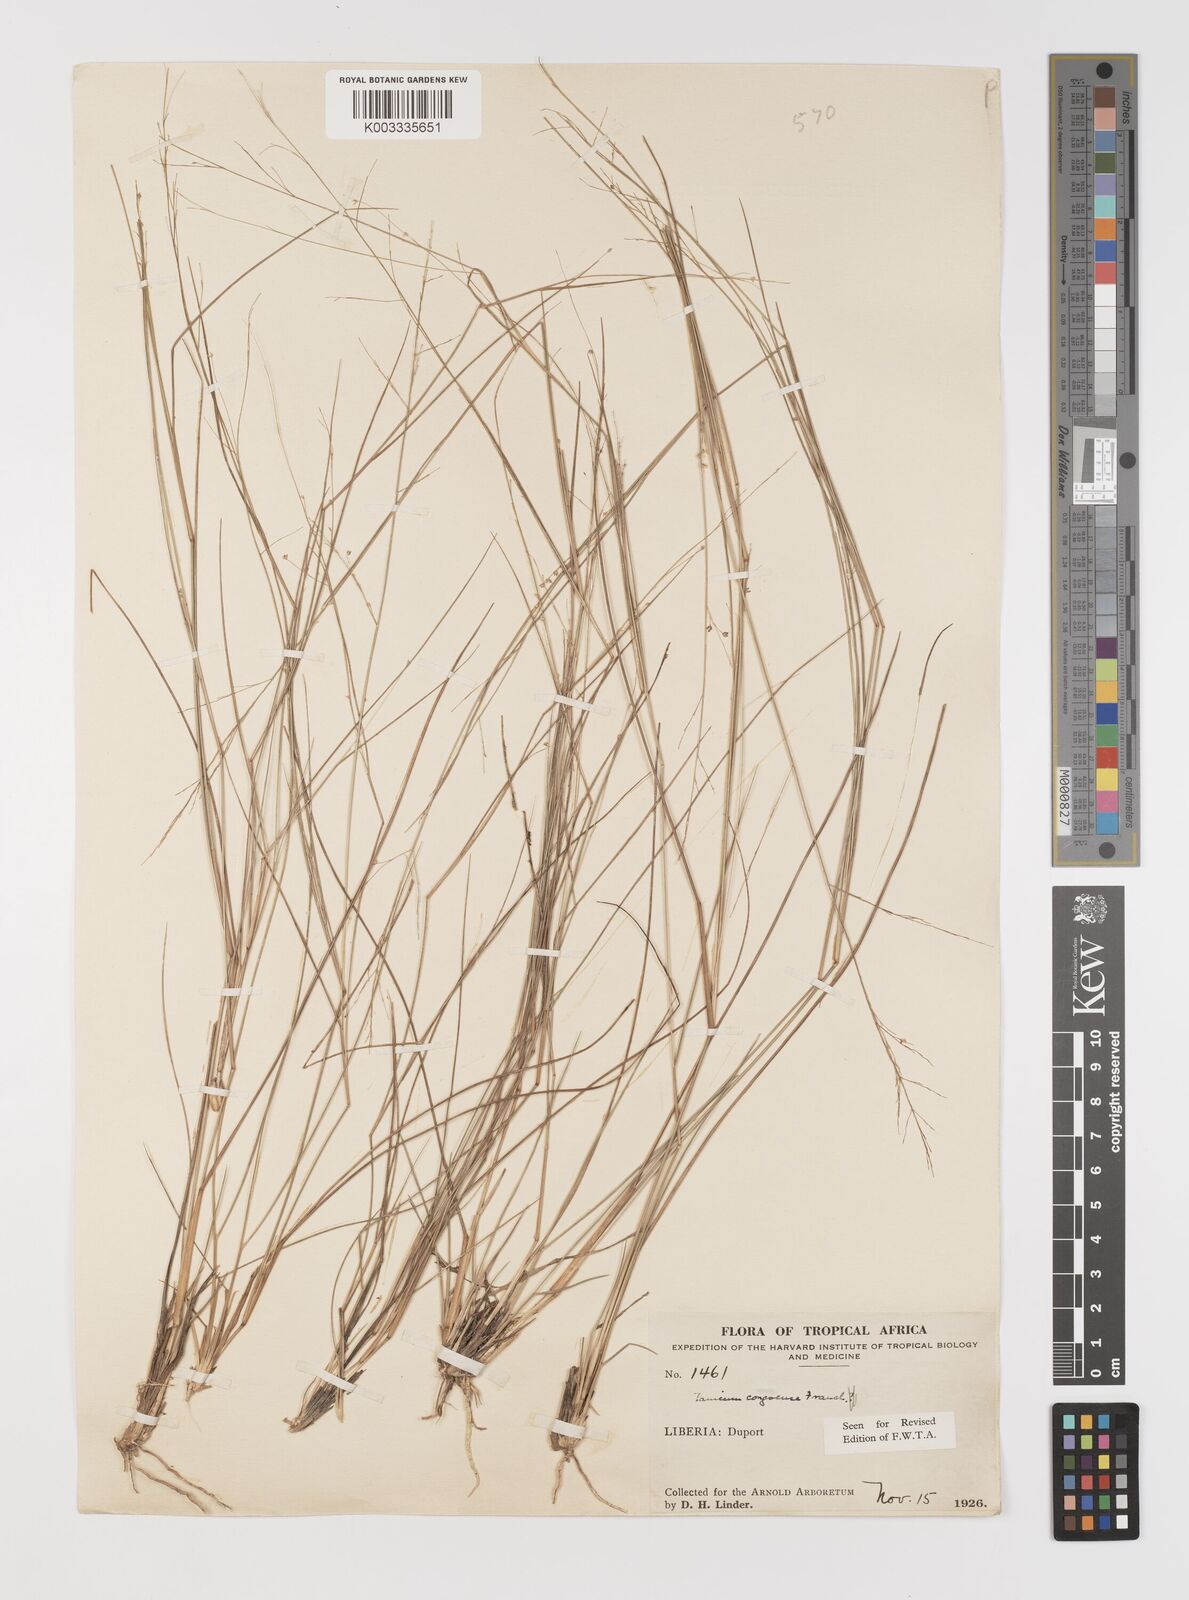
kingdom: Plantae
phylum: Tracheophyta
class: Liliopsida
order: Poales
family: Poaceae
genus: Panicum
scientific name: Panicum congoense
